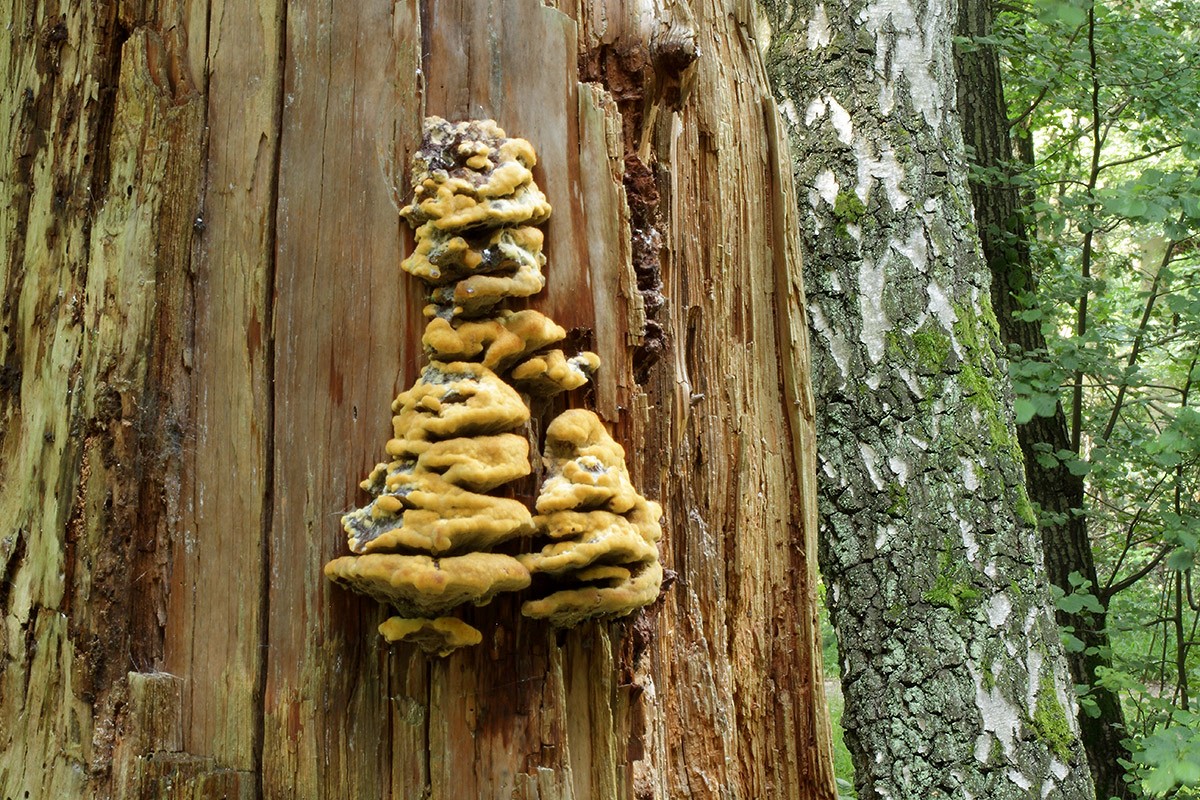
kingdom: Fungi
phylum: Basidiomycota
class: Agaricomycetes
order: Polyporales
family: Laetiporaceae
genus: Phaeolus
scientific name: Phaeolus schweinitzii
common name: brunporesvamp
